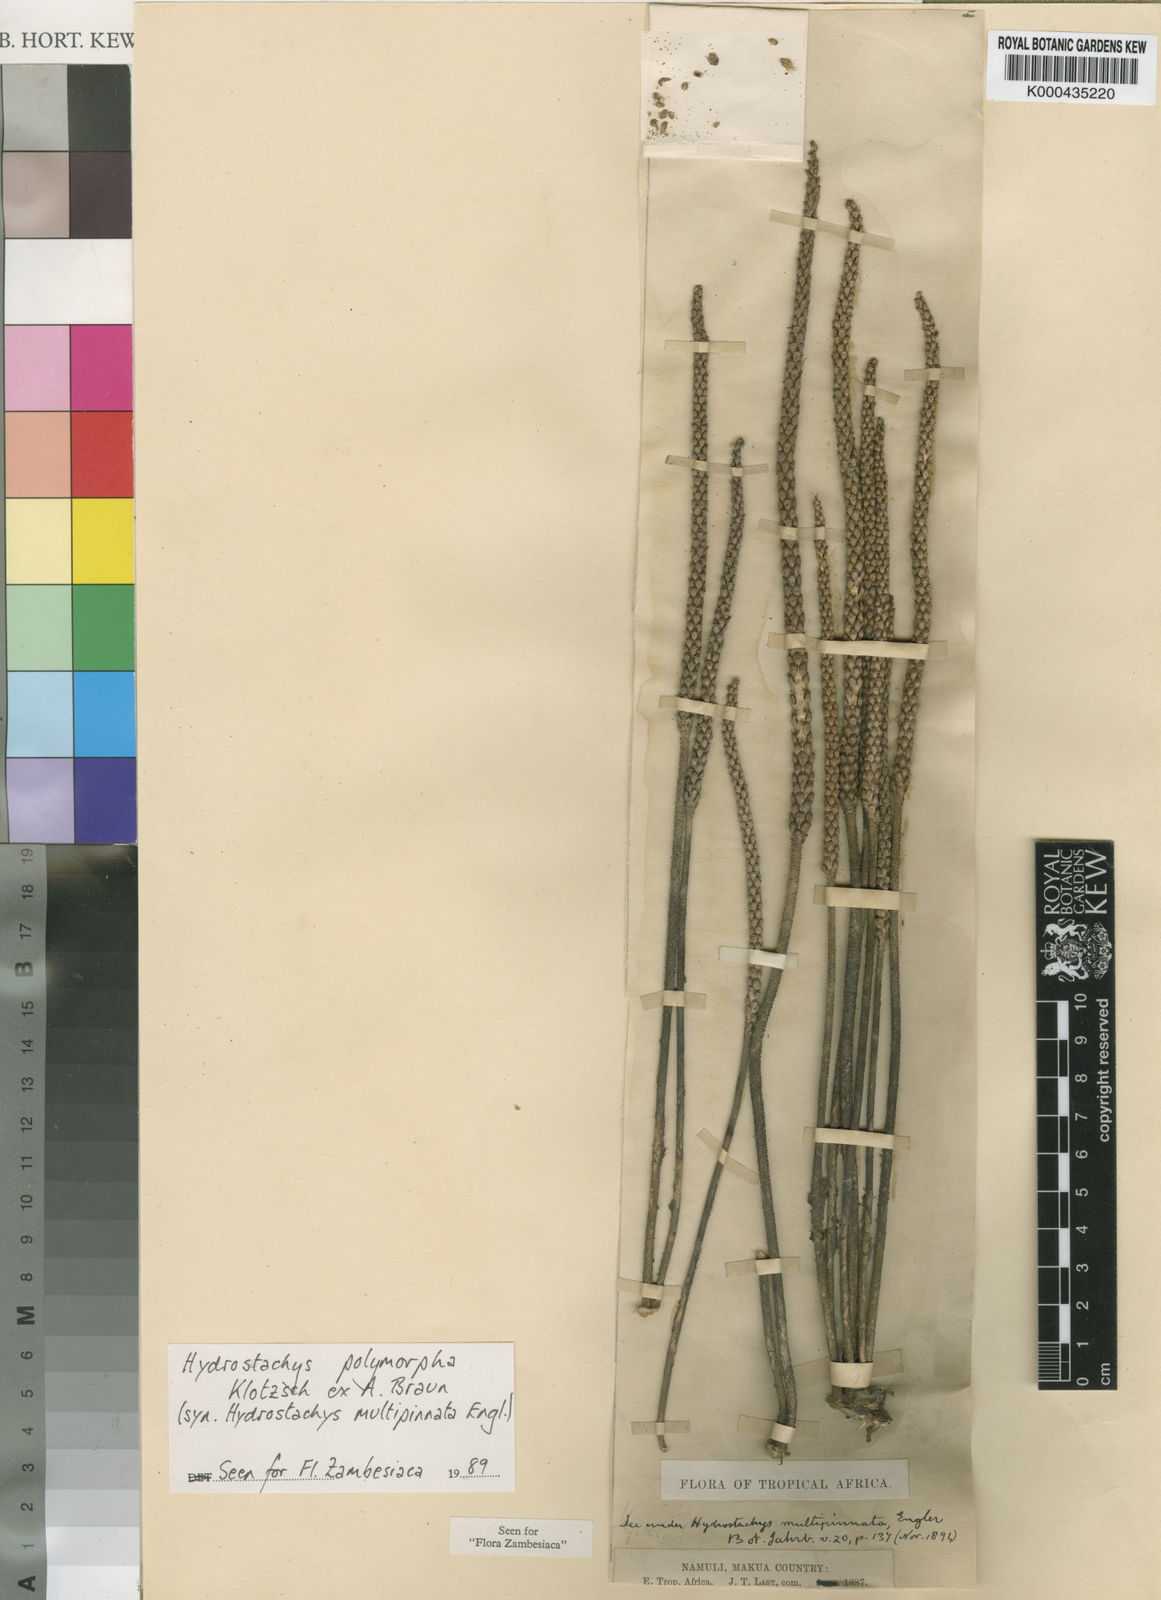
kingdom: Plantae
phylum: Tracheophyta
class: Magnoliopsida
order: Cornales
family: Hydrostachyaceae
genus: Hydrostachys
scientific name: Hydrostachys
